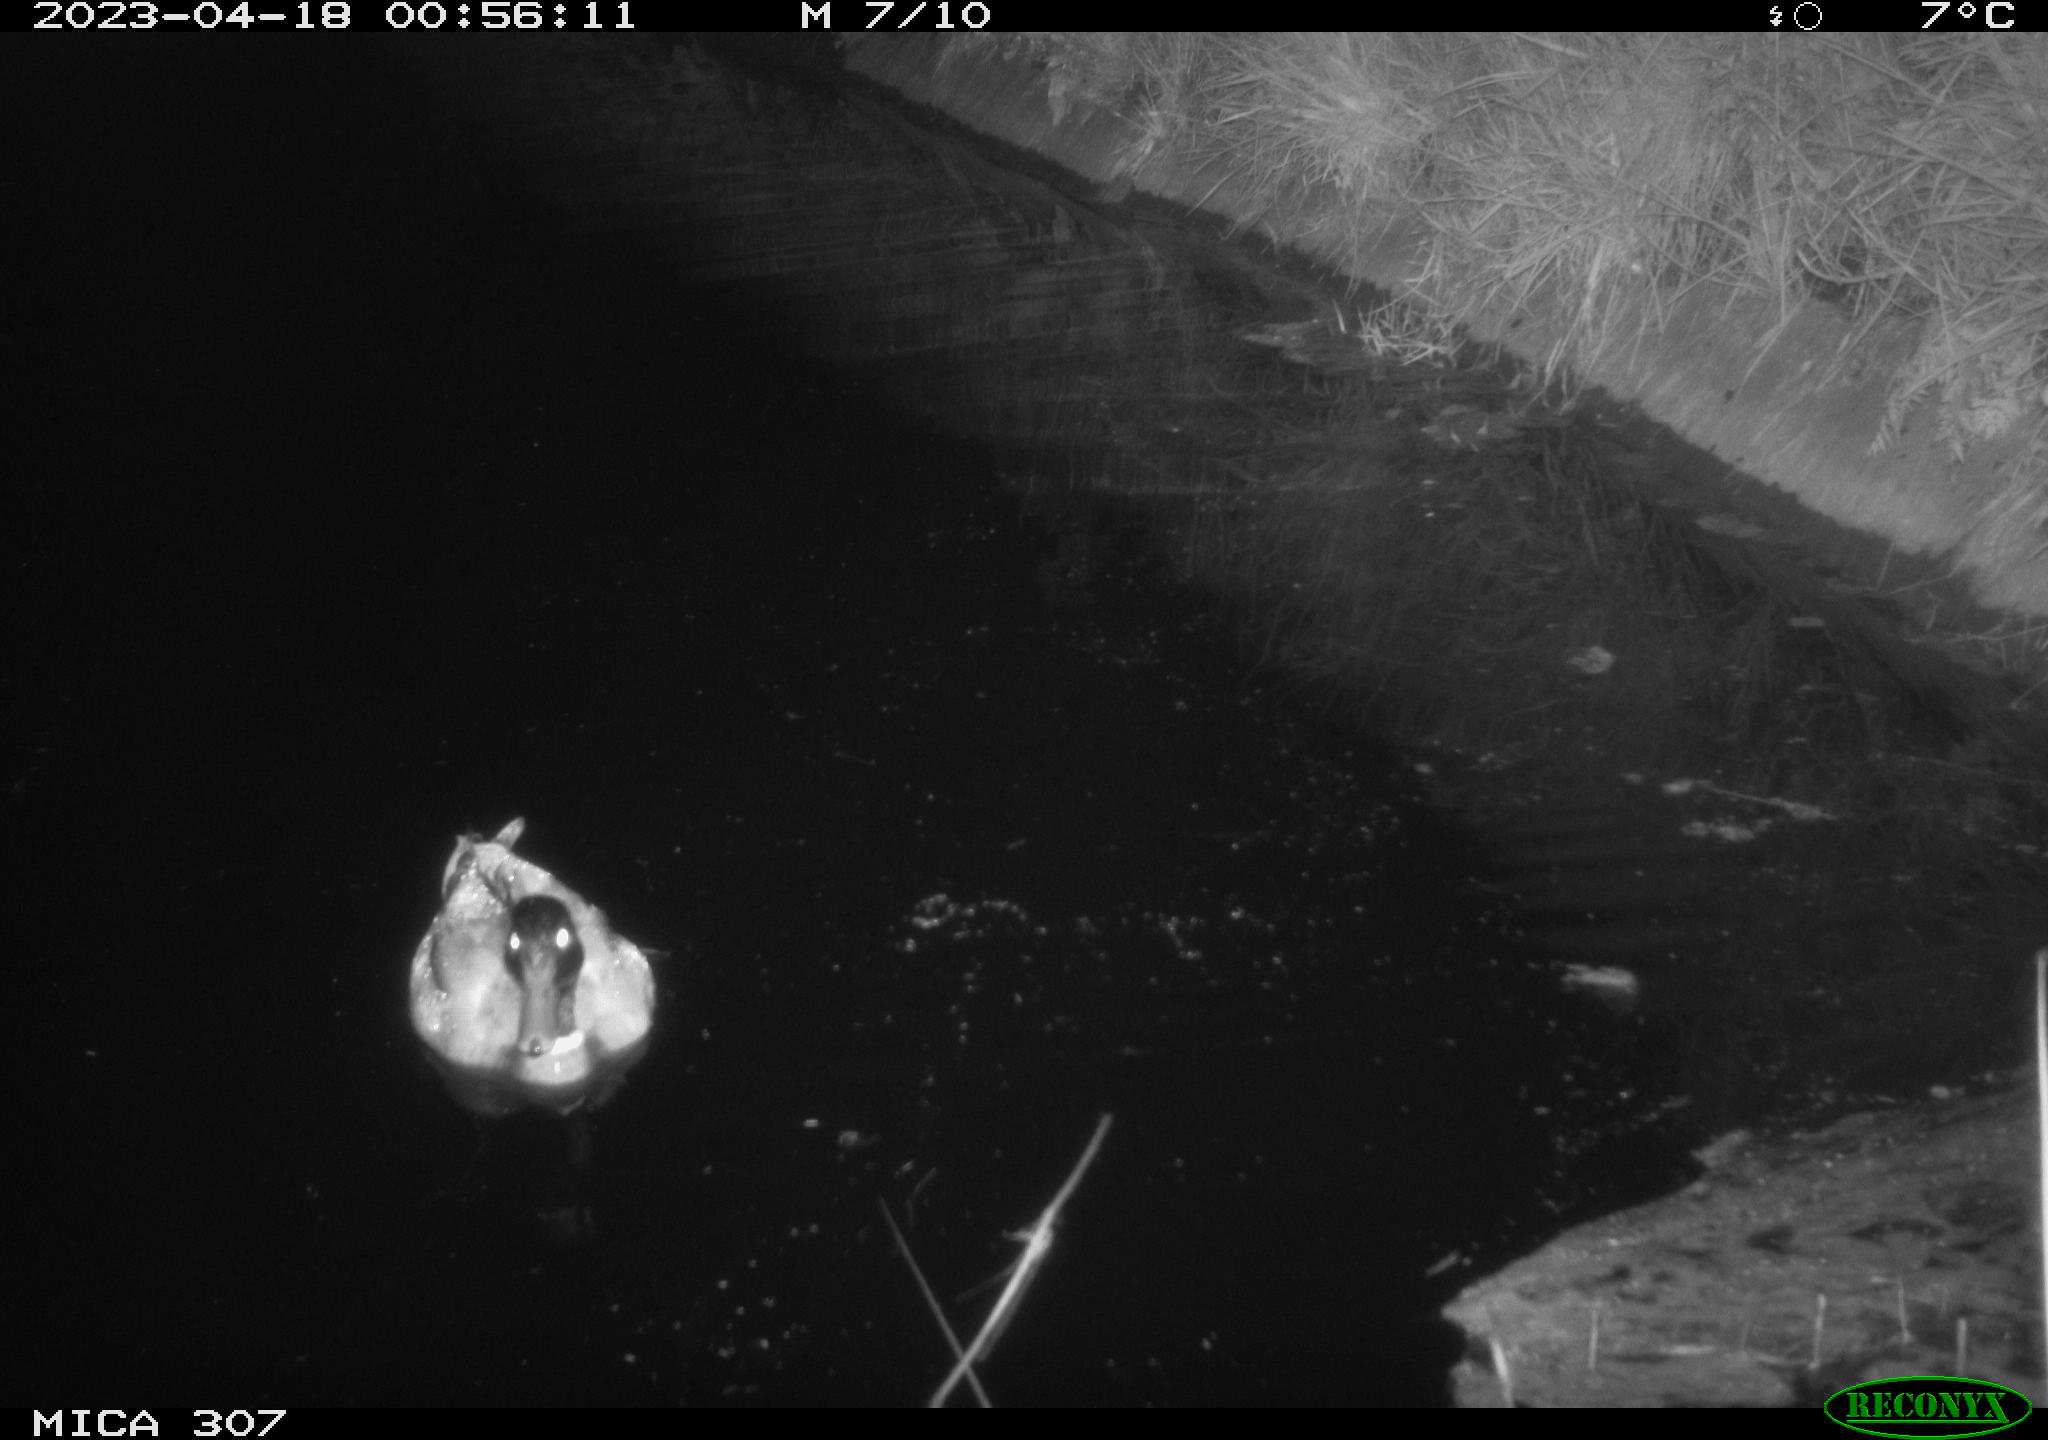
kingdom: Animalia
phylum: Chordata
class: Aves
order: Anseriformes
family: Anatidae
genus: Anas
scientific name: Anas
